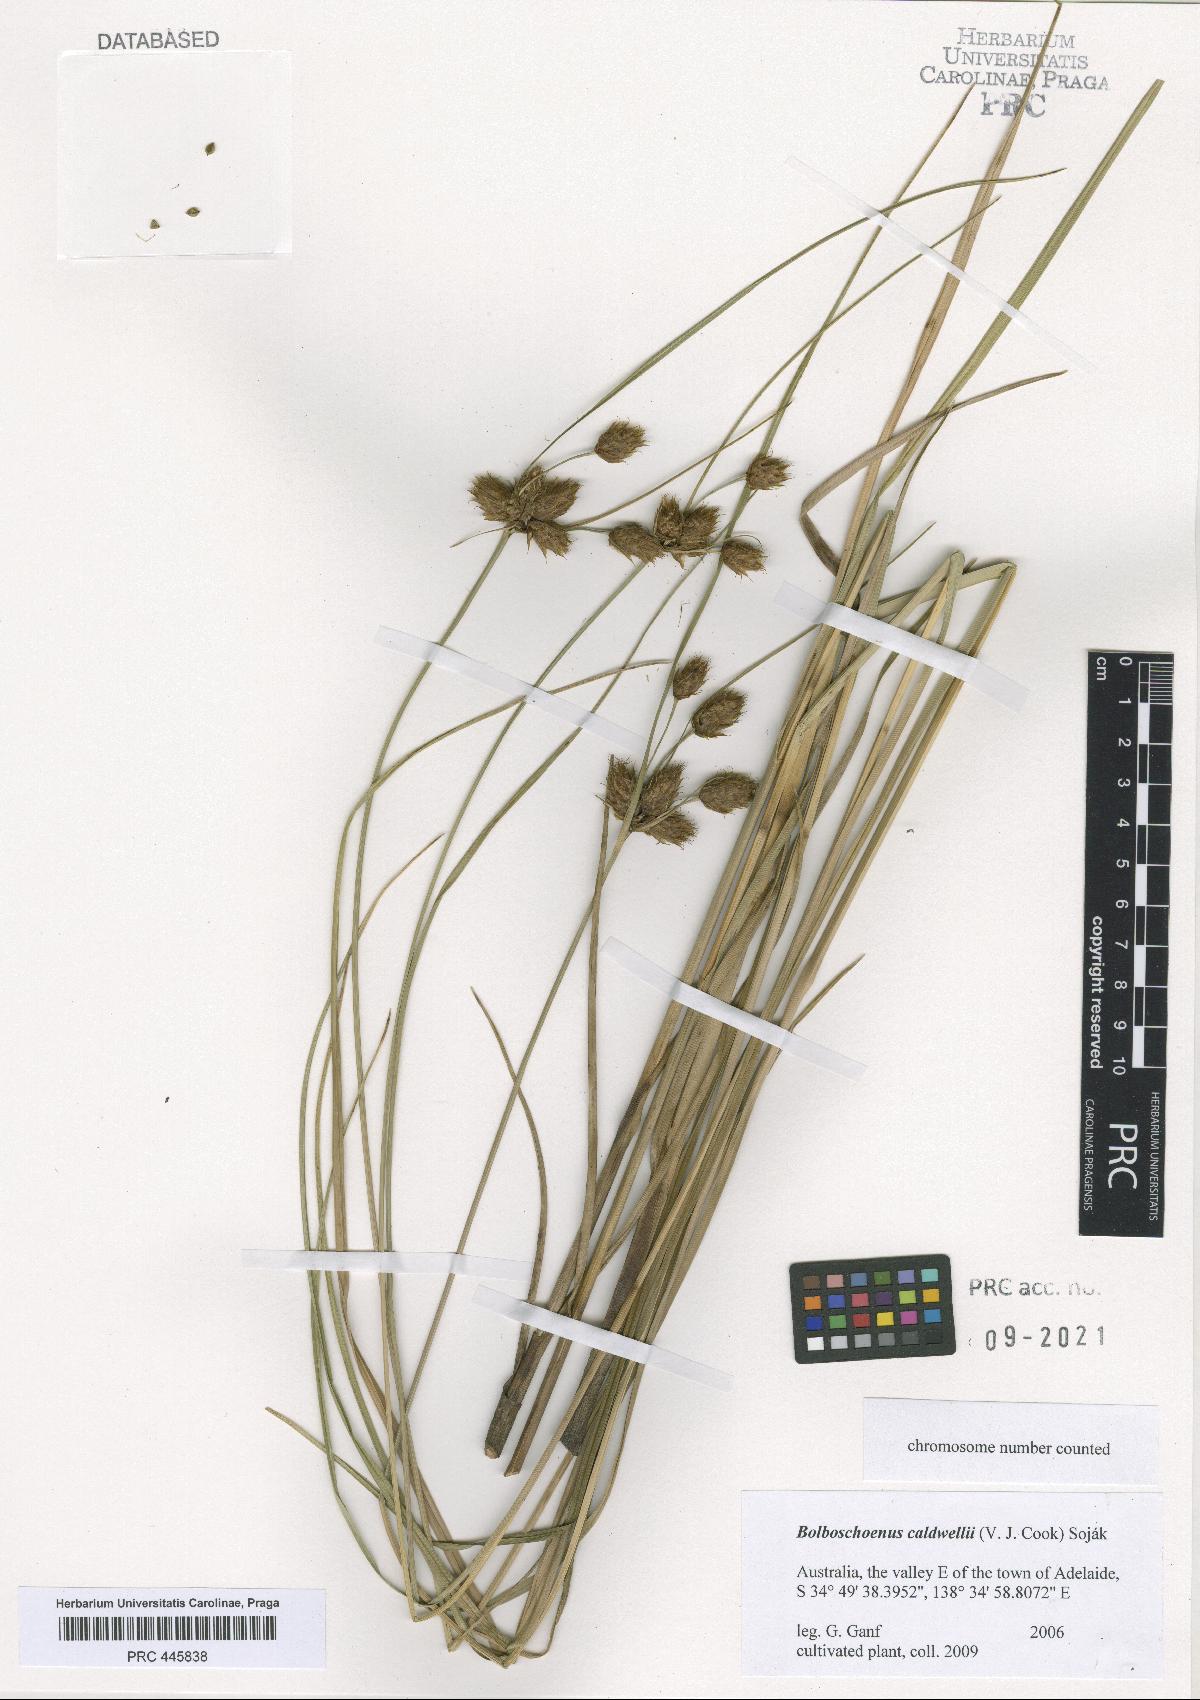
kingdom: Plantae
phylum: Tracheophyta
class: Liliopsida
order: Poales
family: Cyperaceae
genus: Bolboschoenus
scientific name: Bolboschoenus caldwellii
